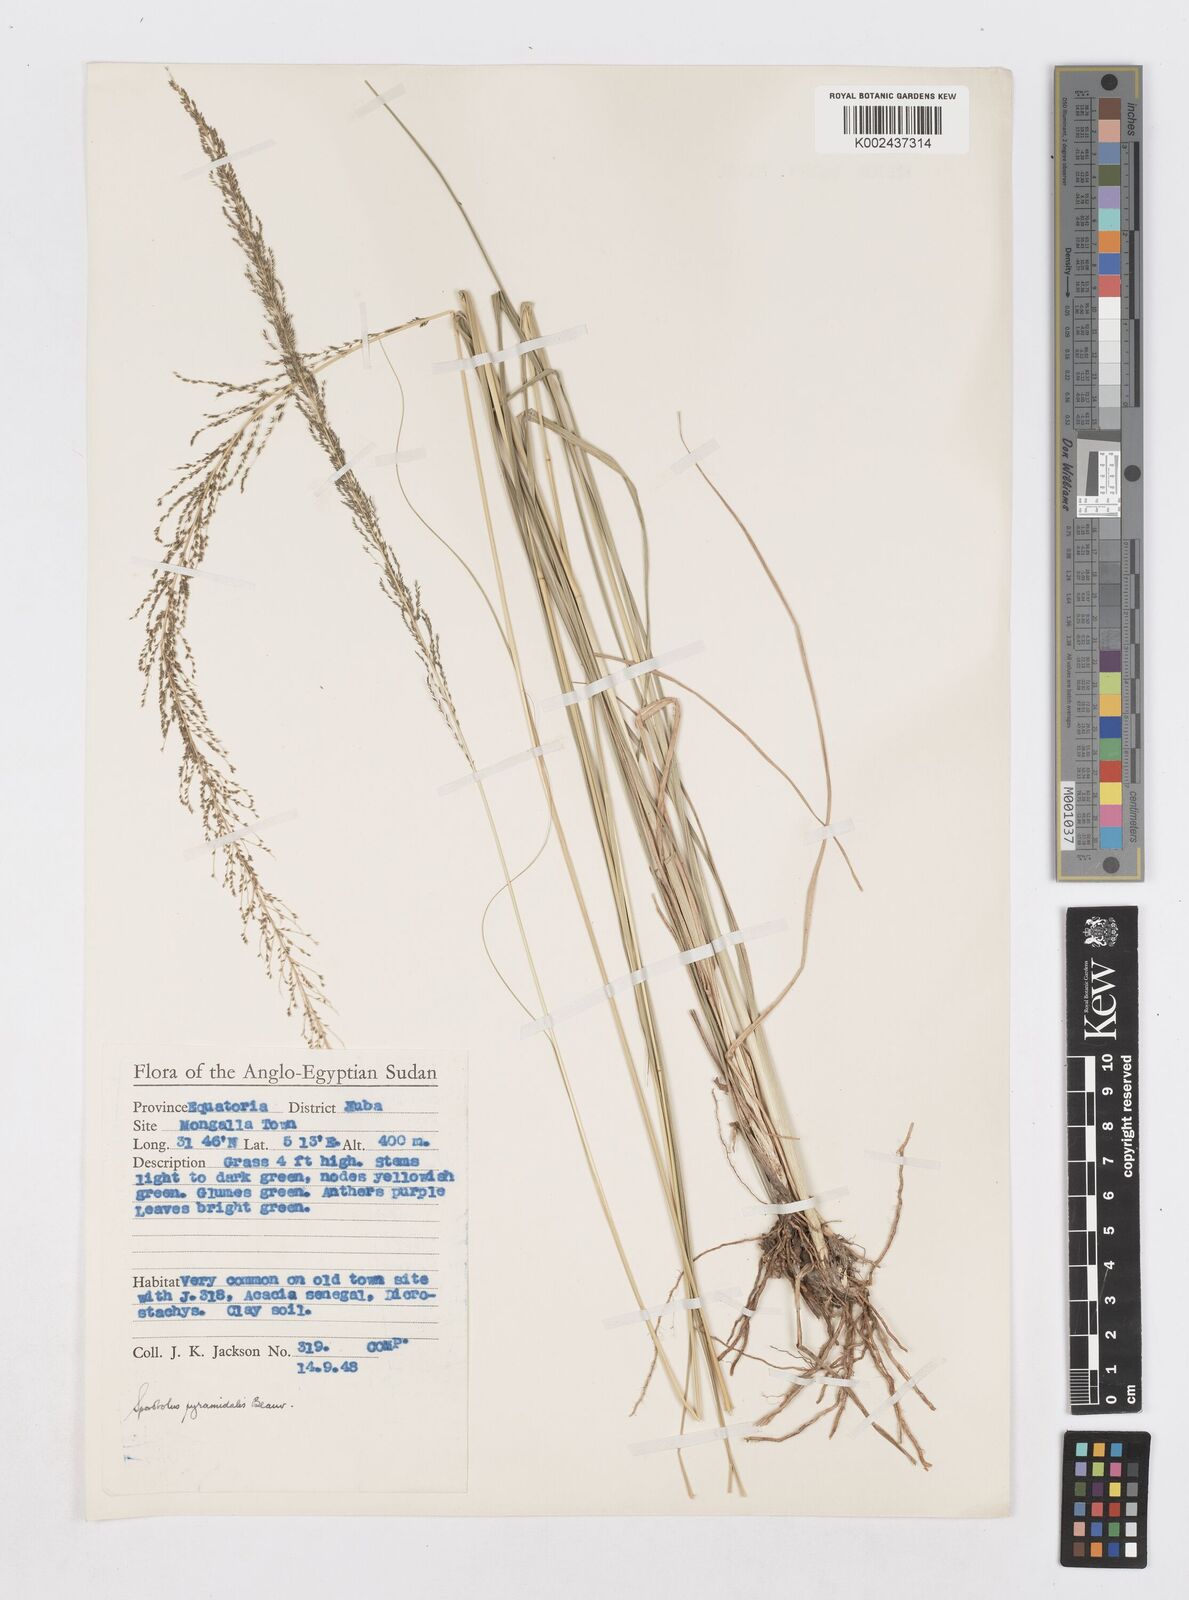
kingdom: Plantae
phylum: Tracheophyta
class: Liliopsida
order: Poales
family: Poaceae
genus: Sporobolus
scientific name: Sporobolus pyramidalis
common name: West indian dropseed
